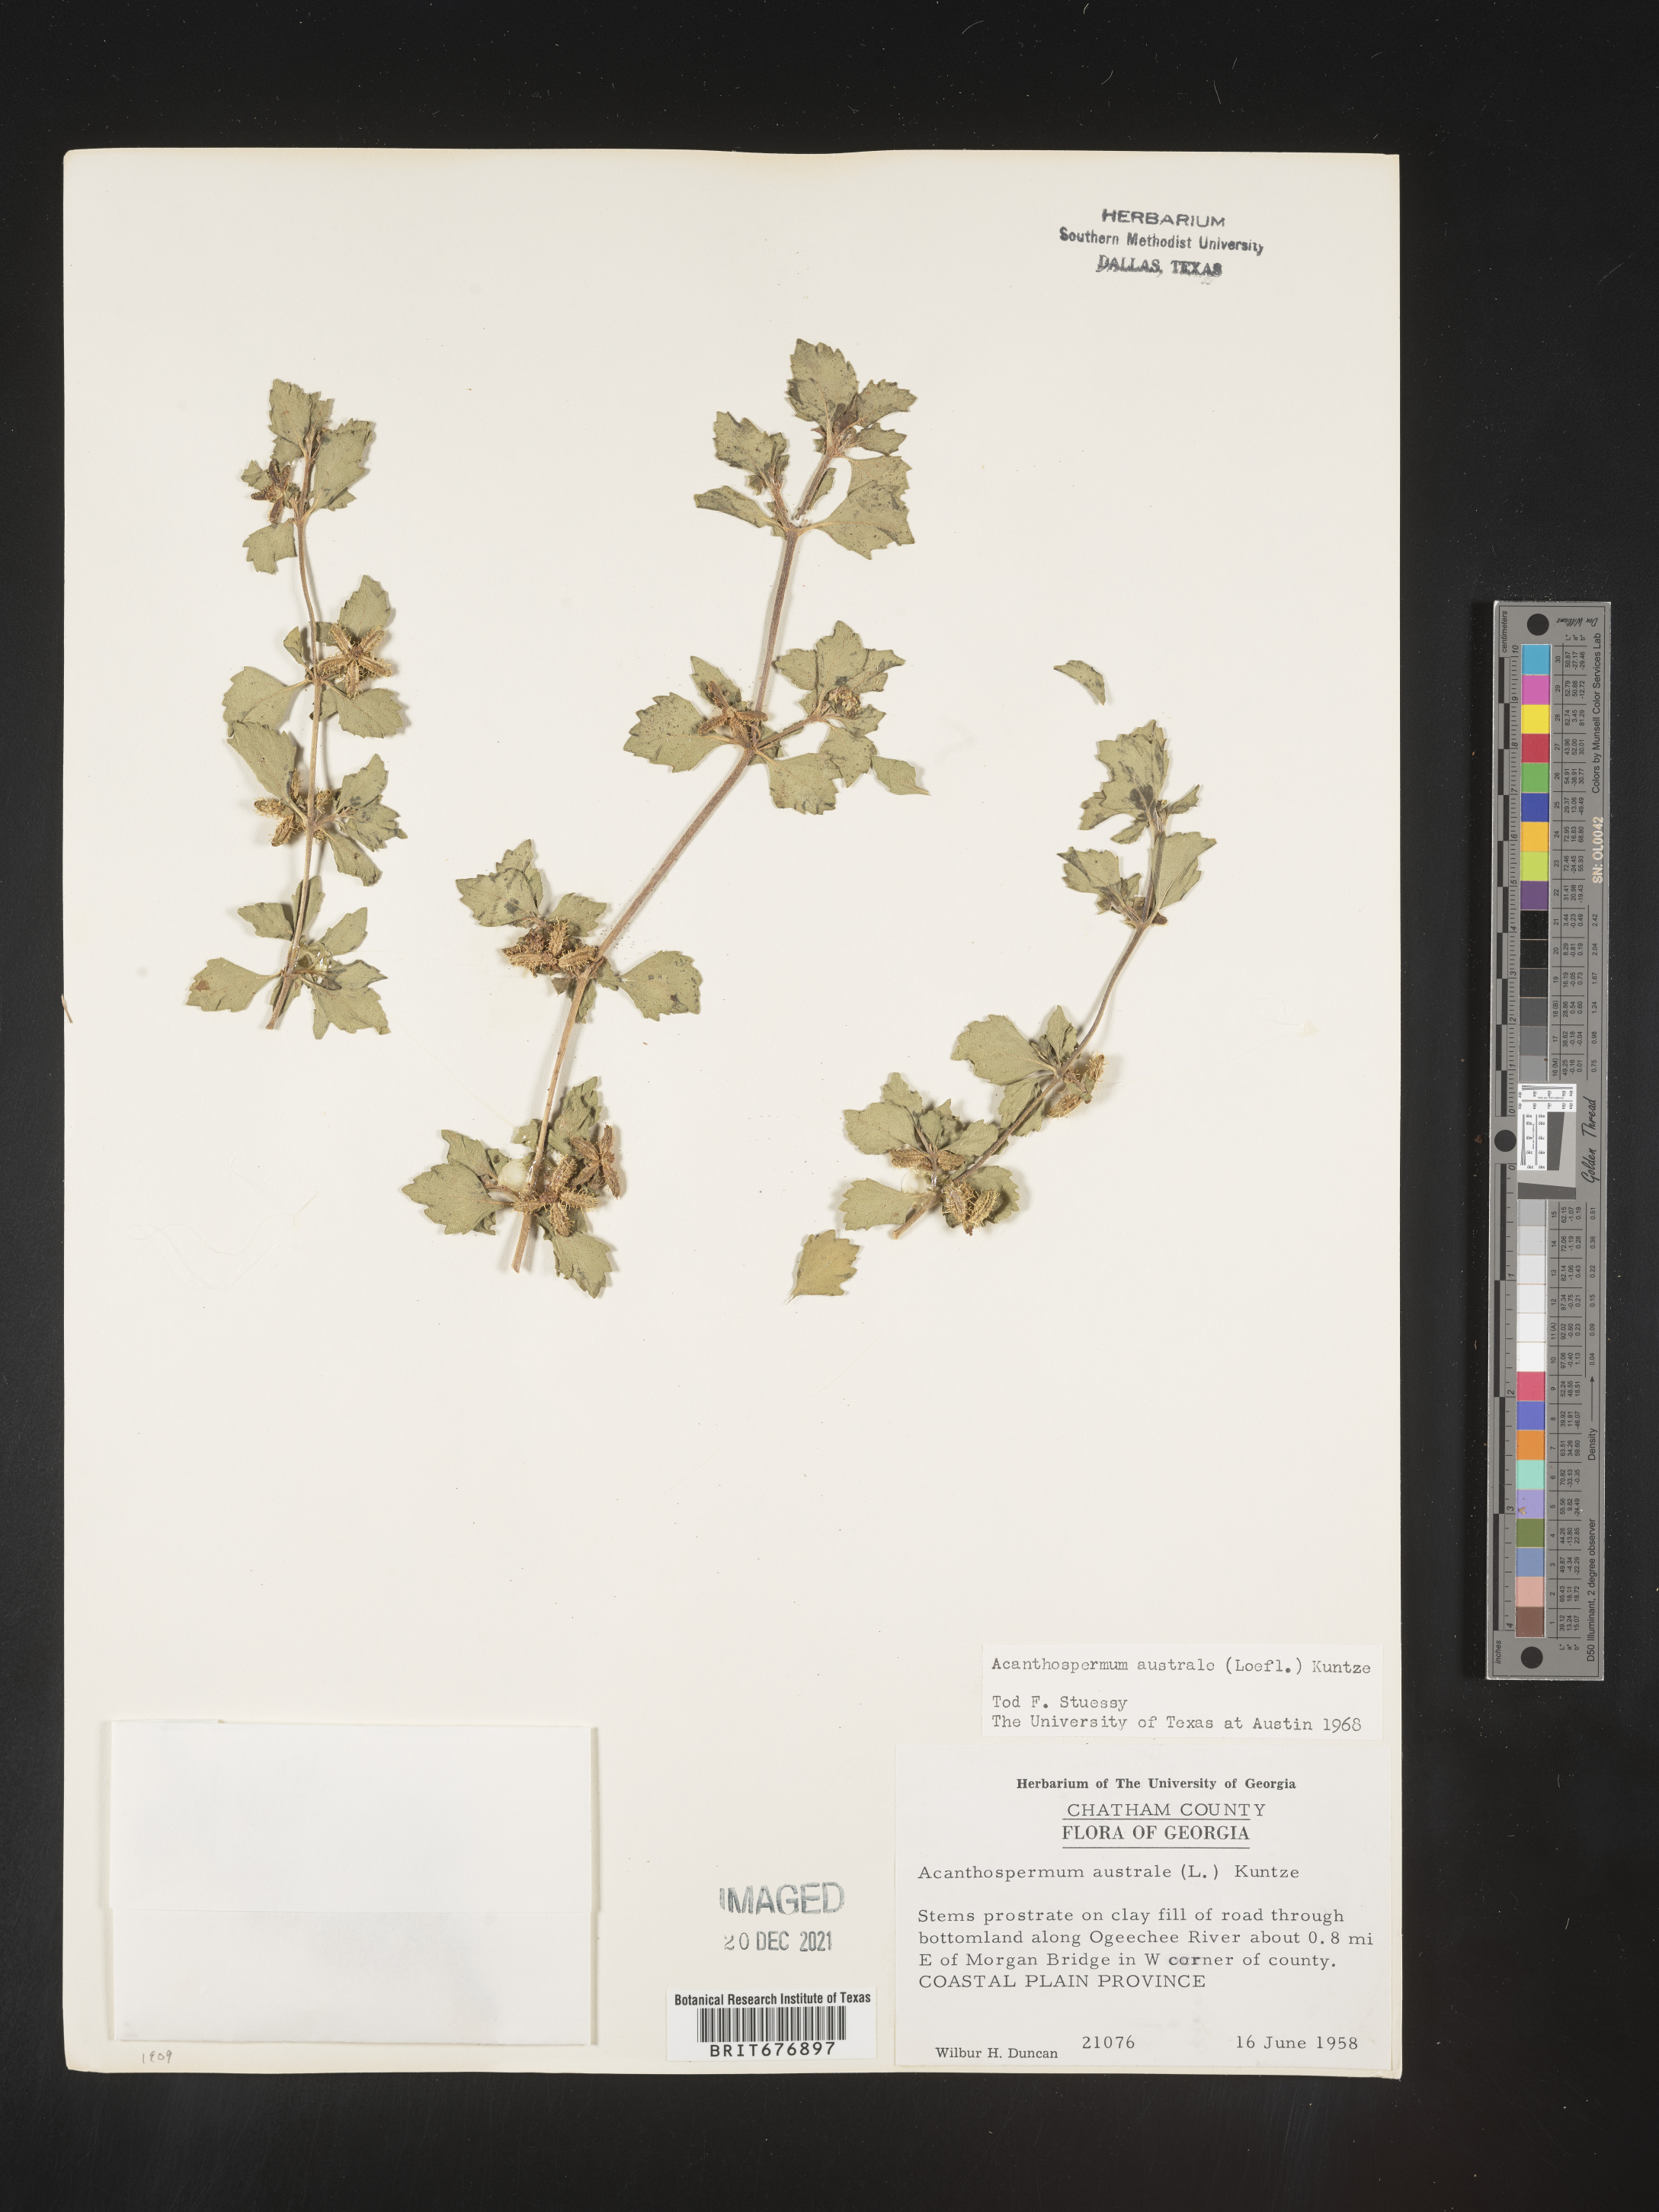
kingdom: Plantae
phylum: Tracheophyta
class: Magnoliopsida
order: Asterales
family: Asteraceae
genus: Acanthospermum
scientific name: Acanthospermum australe
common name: Paraguayan starbur
